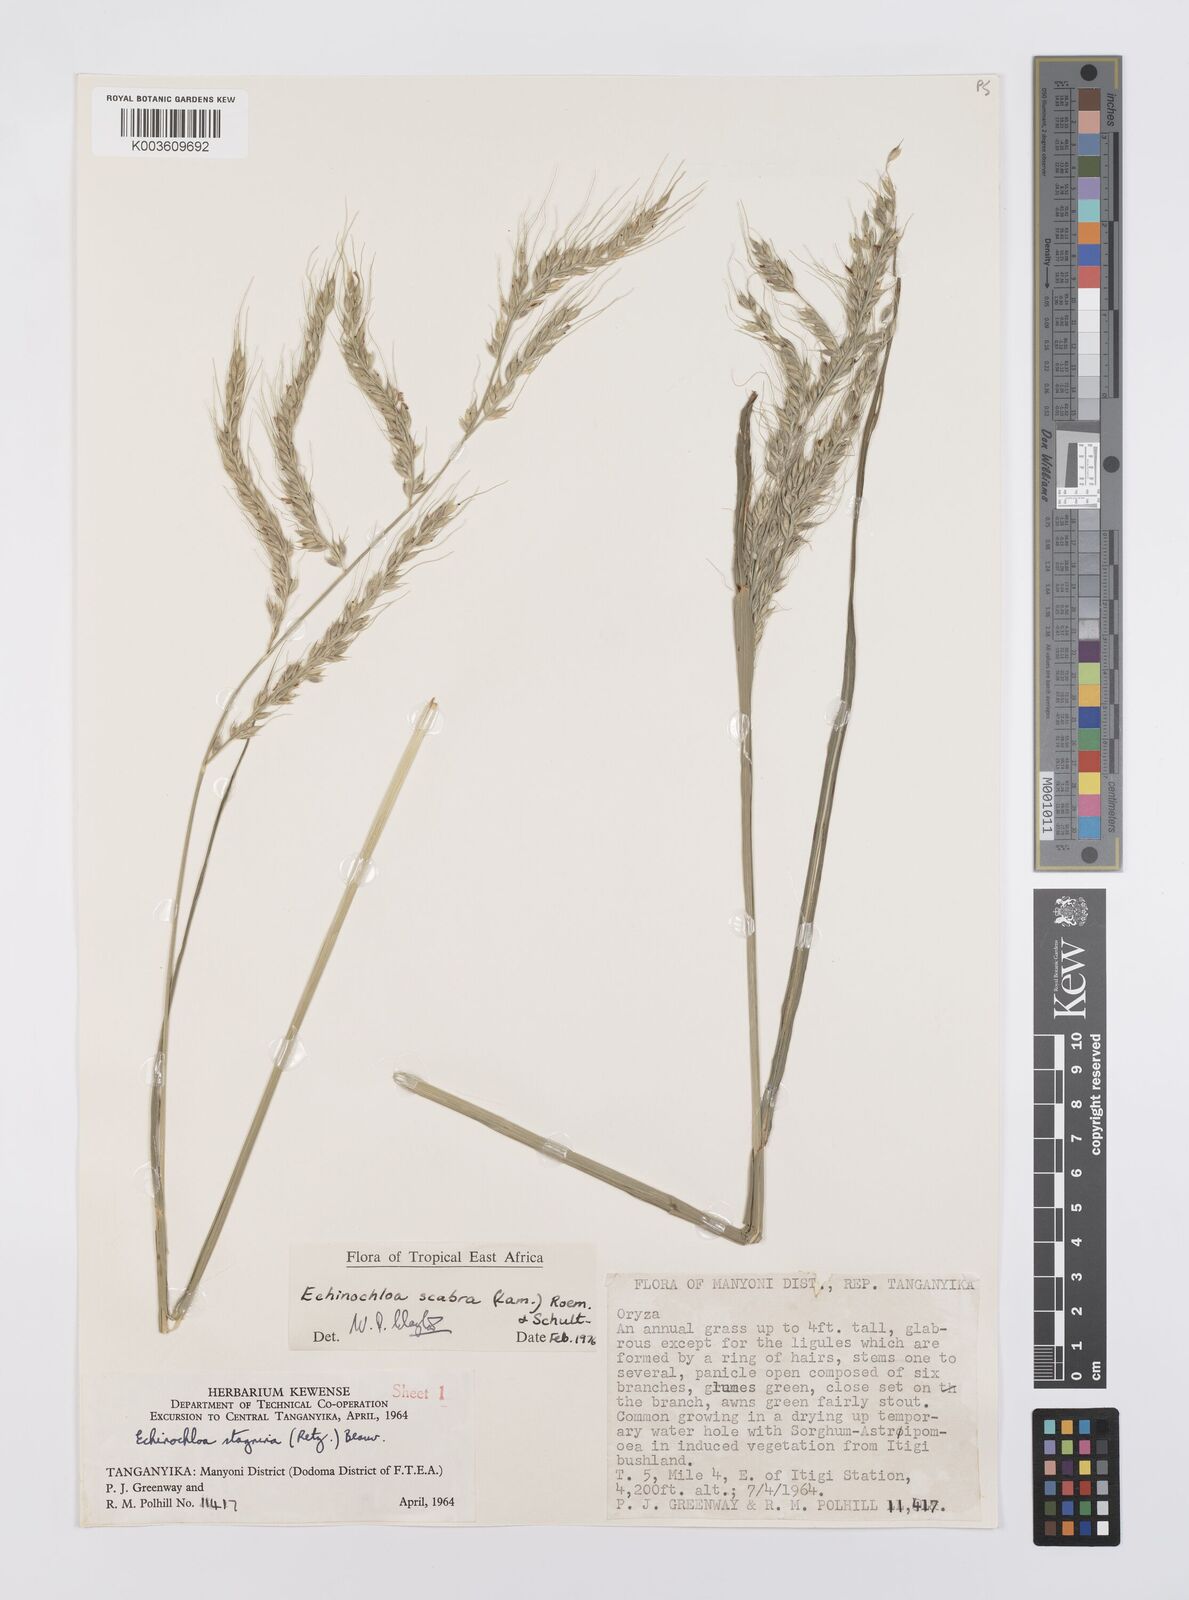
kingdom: Plantae
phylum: Tracheophyta
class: Liliopsida
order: Poales
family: Poaceae
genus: Echinochloa
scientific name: Echinochloa stagnina
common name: Burgu grass
